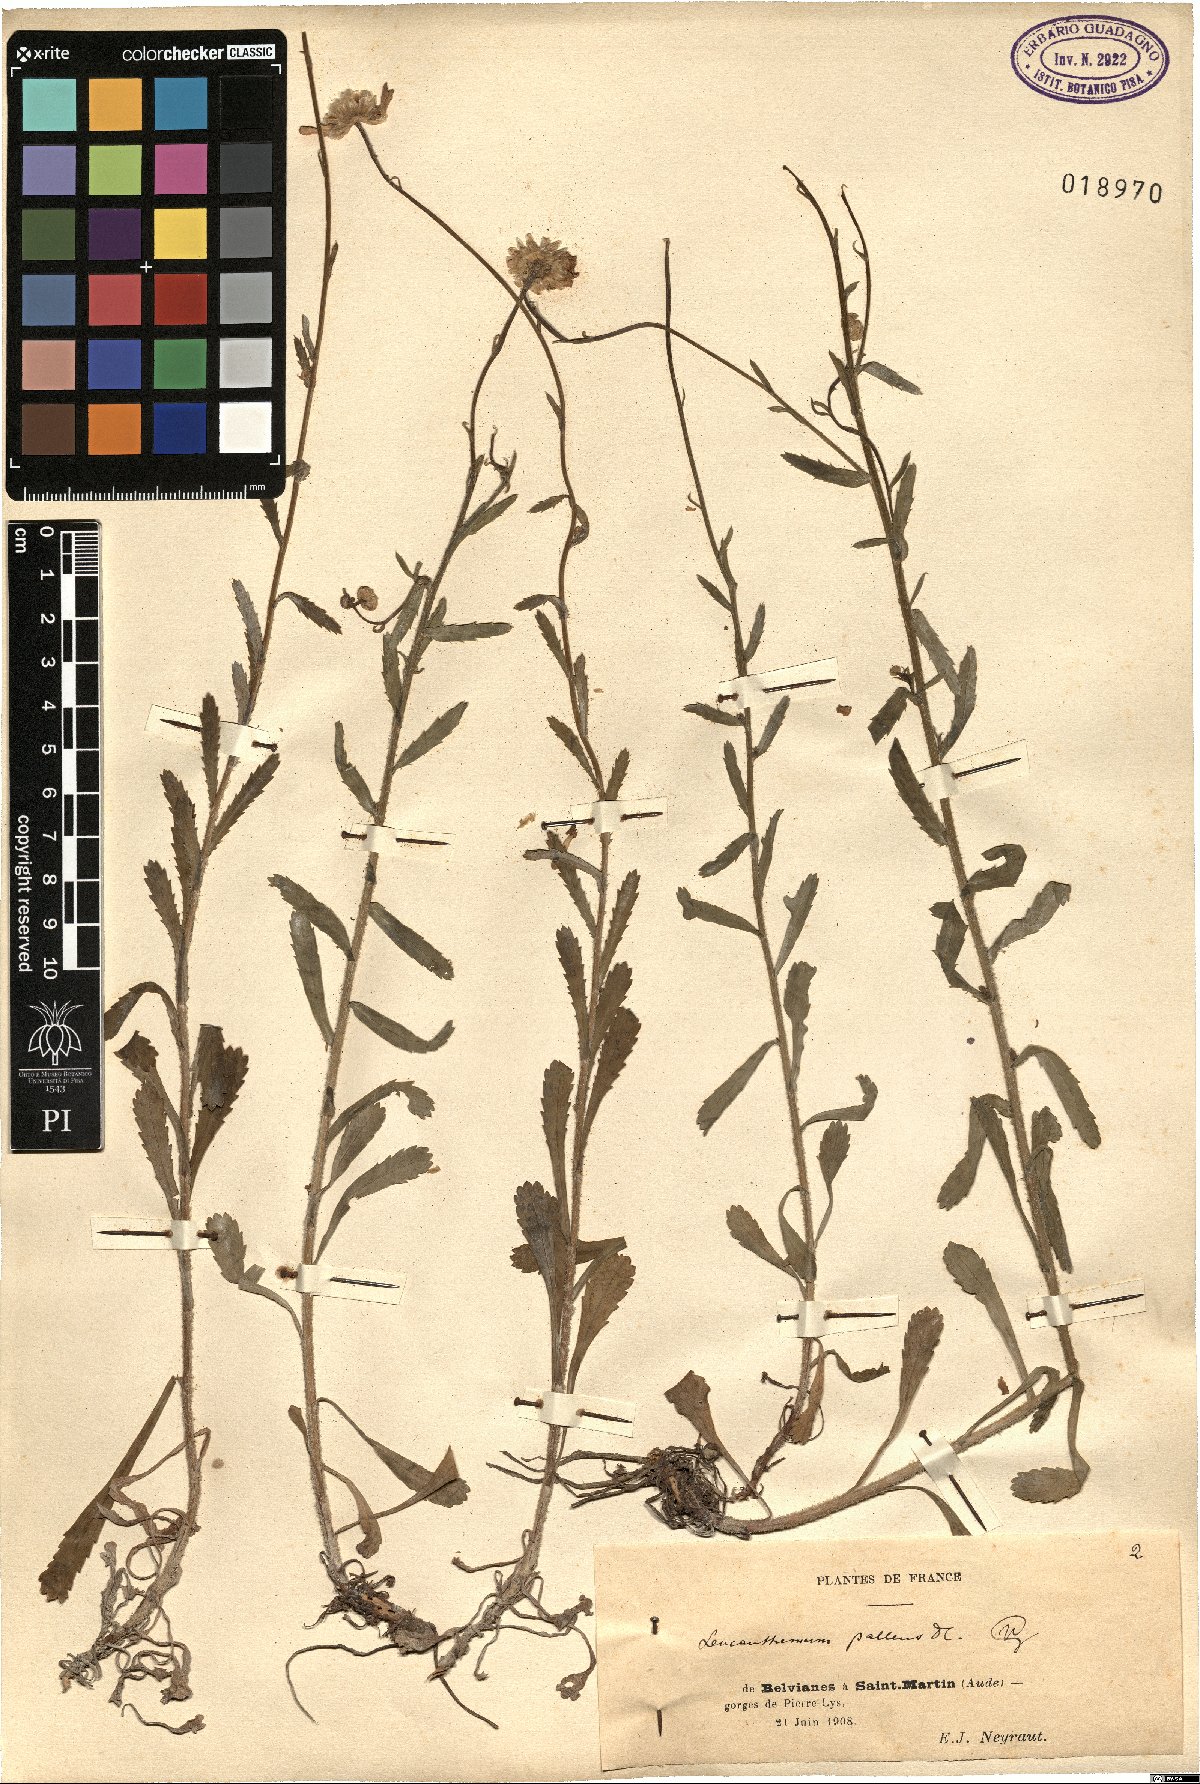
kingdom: Plantae
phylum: Tracheophyta
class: Magnoliopsida
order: Asterales
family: Asteraceae
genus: Leucanthemum
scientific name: Leucanthemum pallens
